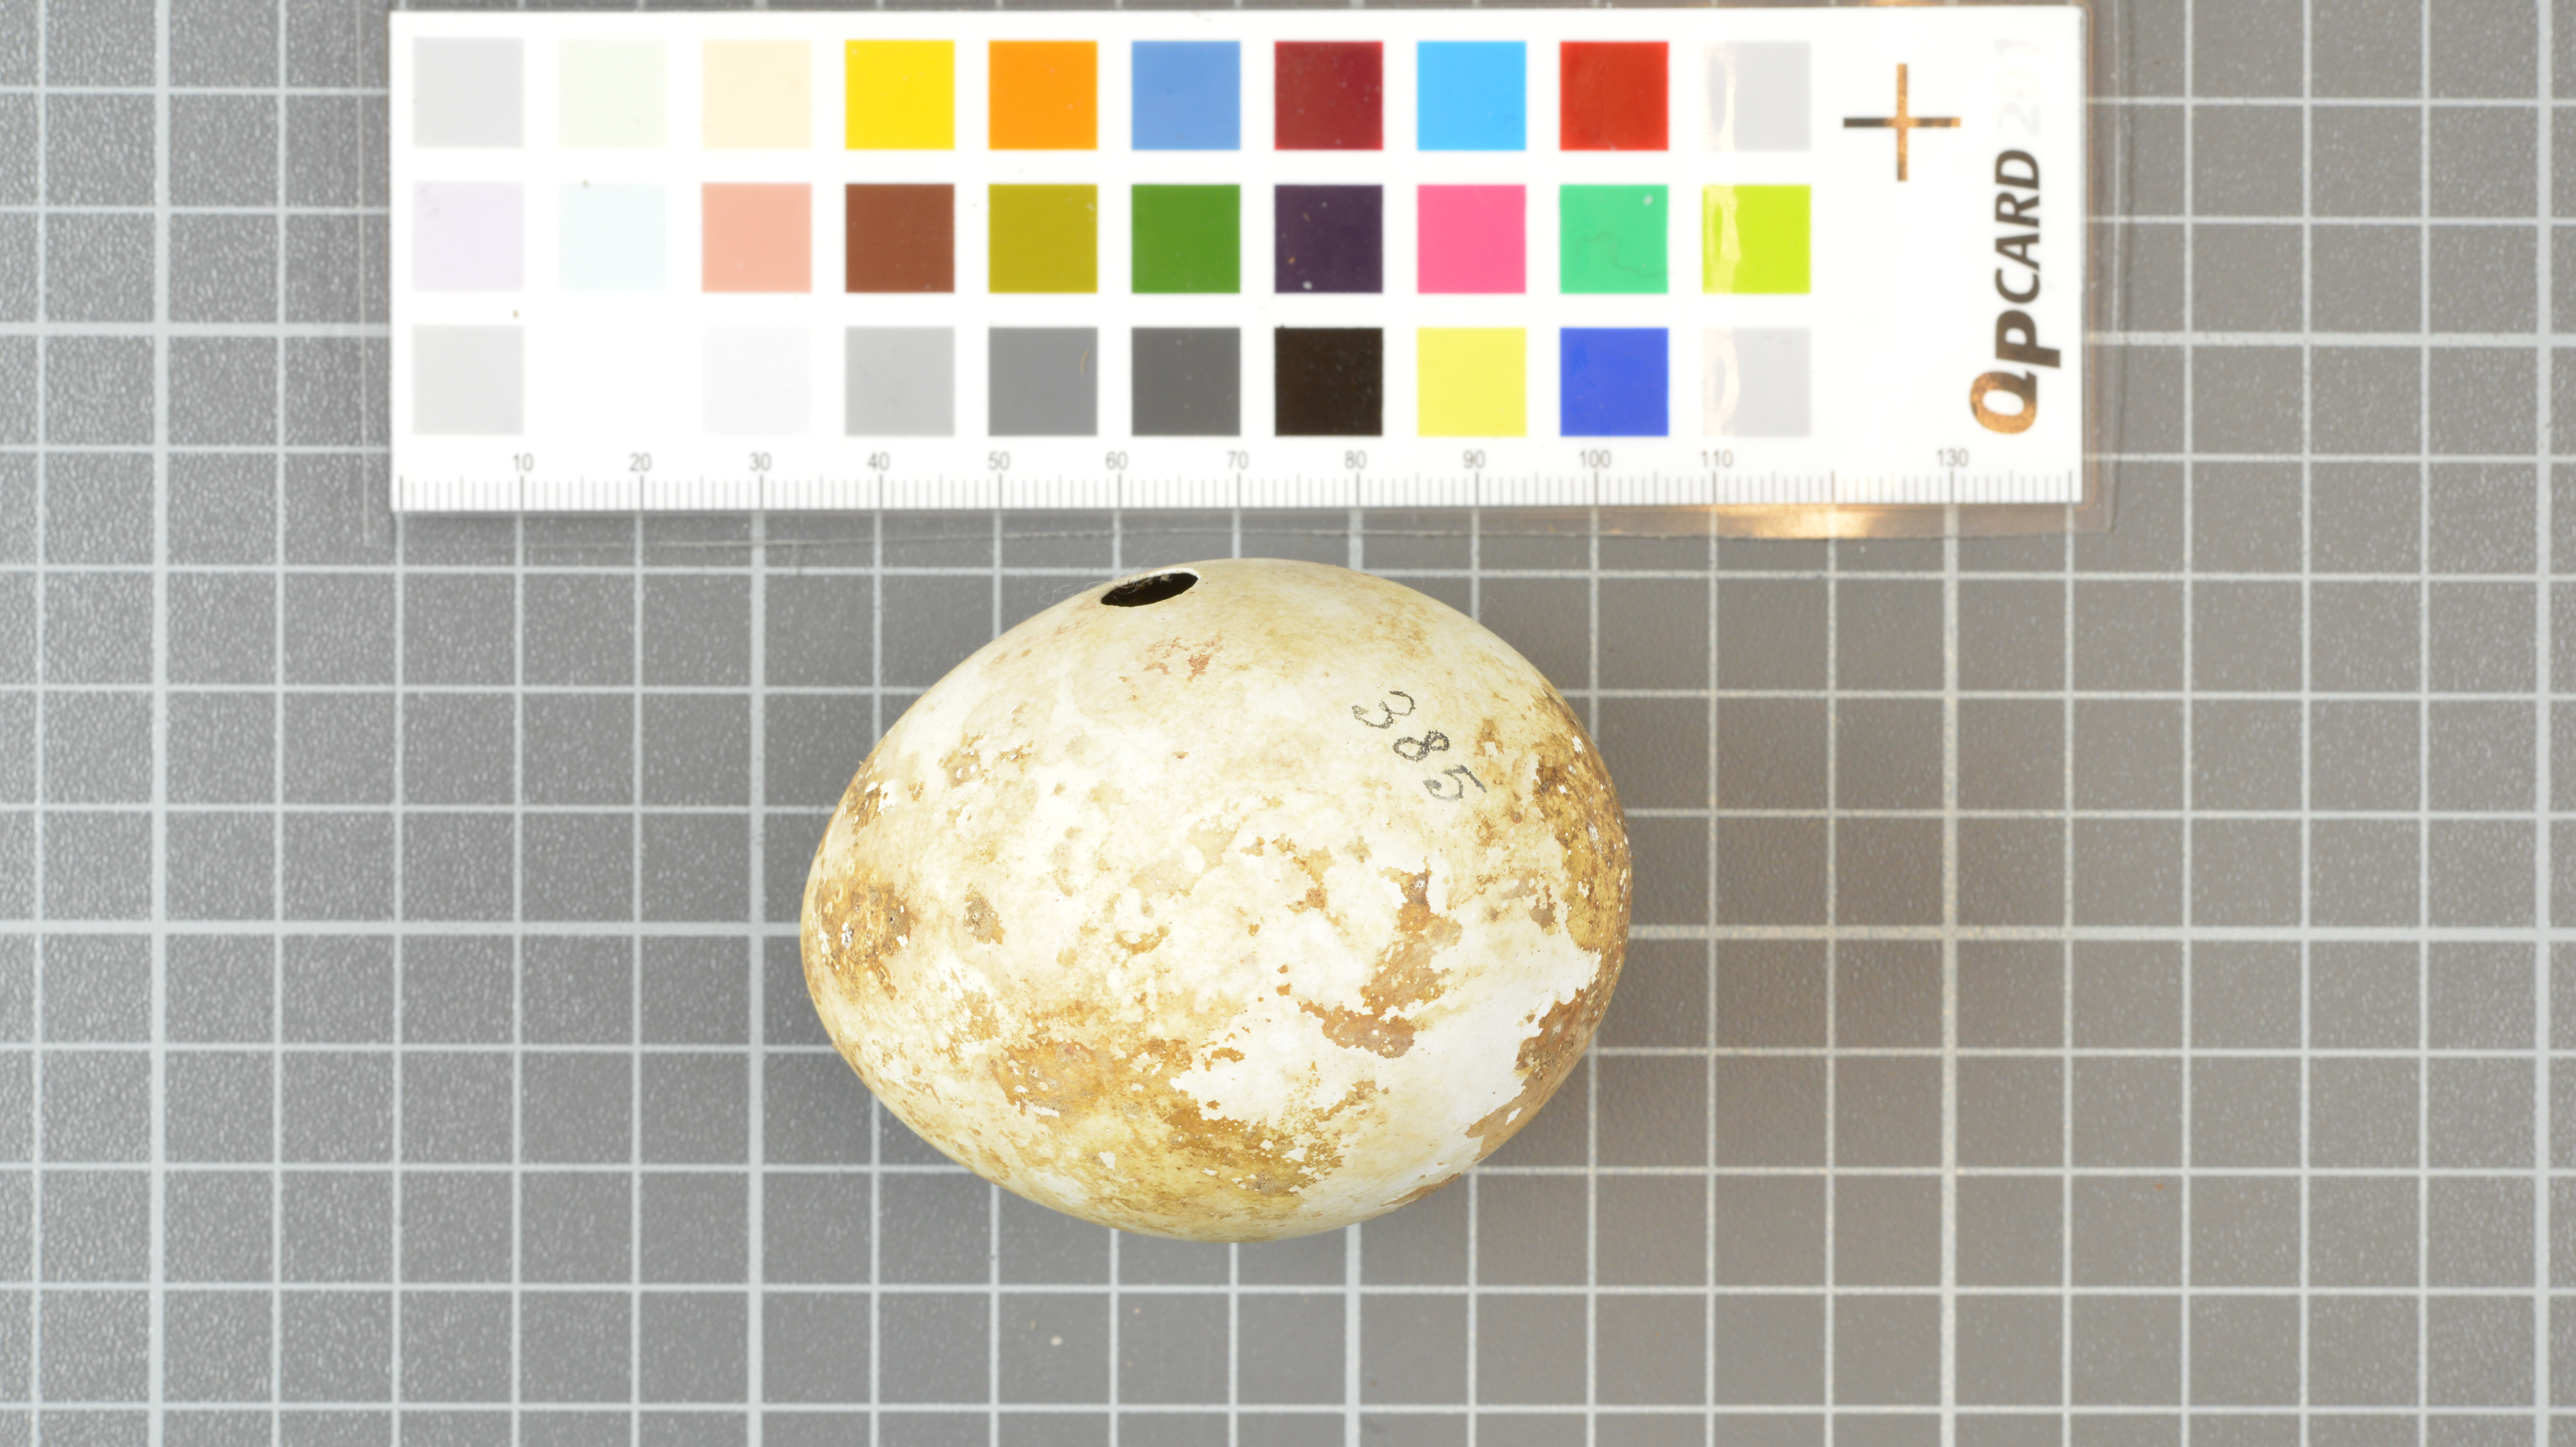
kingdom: Animalia
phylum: Chordata
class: Aves
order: Sphenisciformes
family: Spheniscidae
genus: Eudyptes
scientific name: Eudyptes moseleyi
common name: Northern rockhopper penguin
